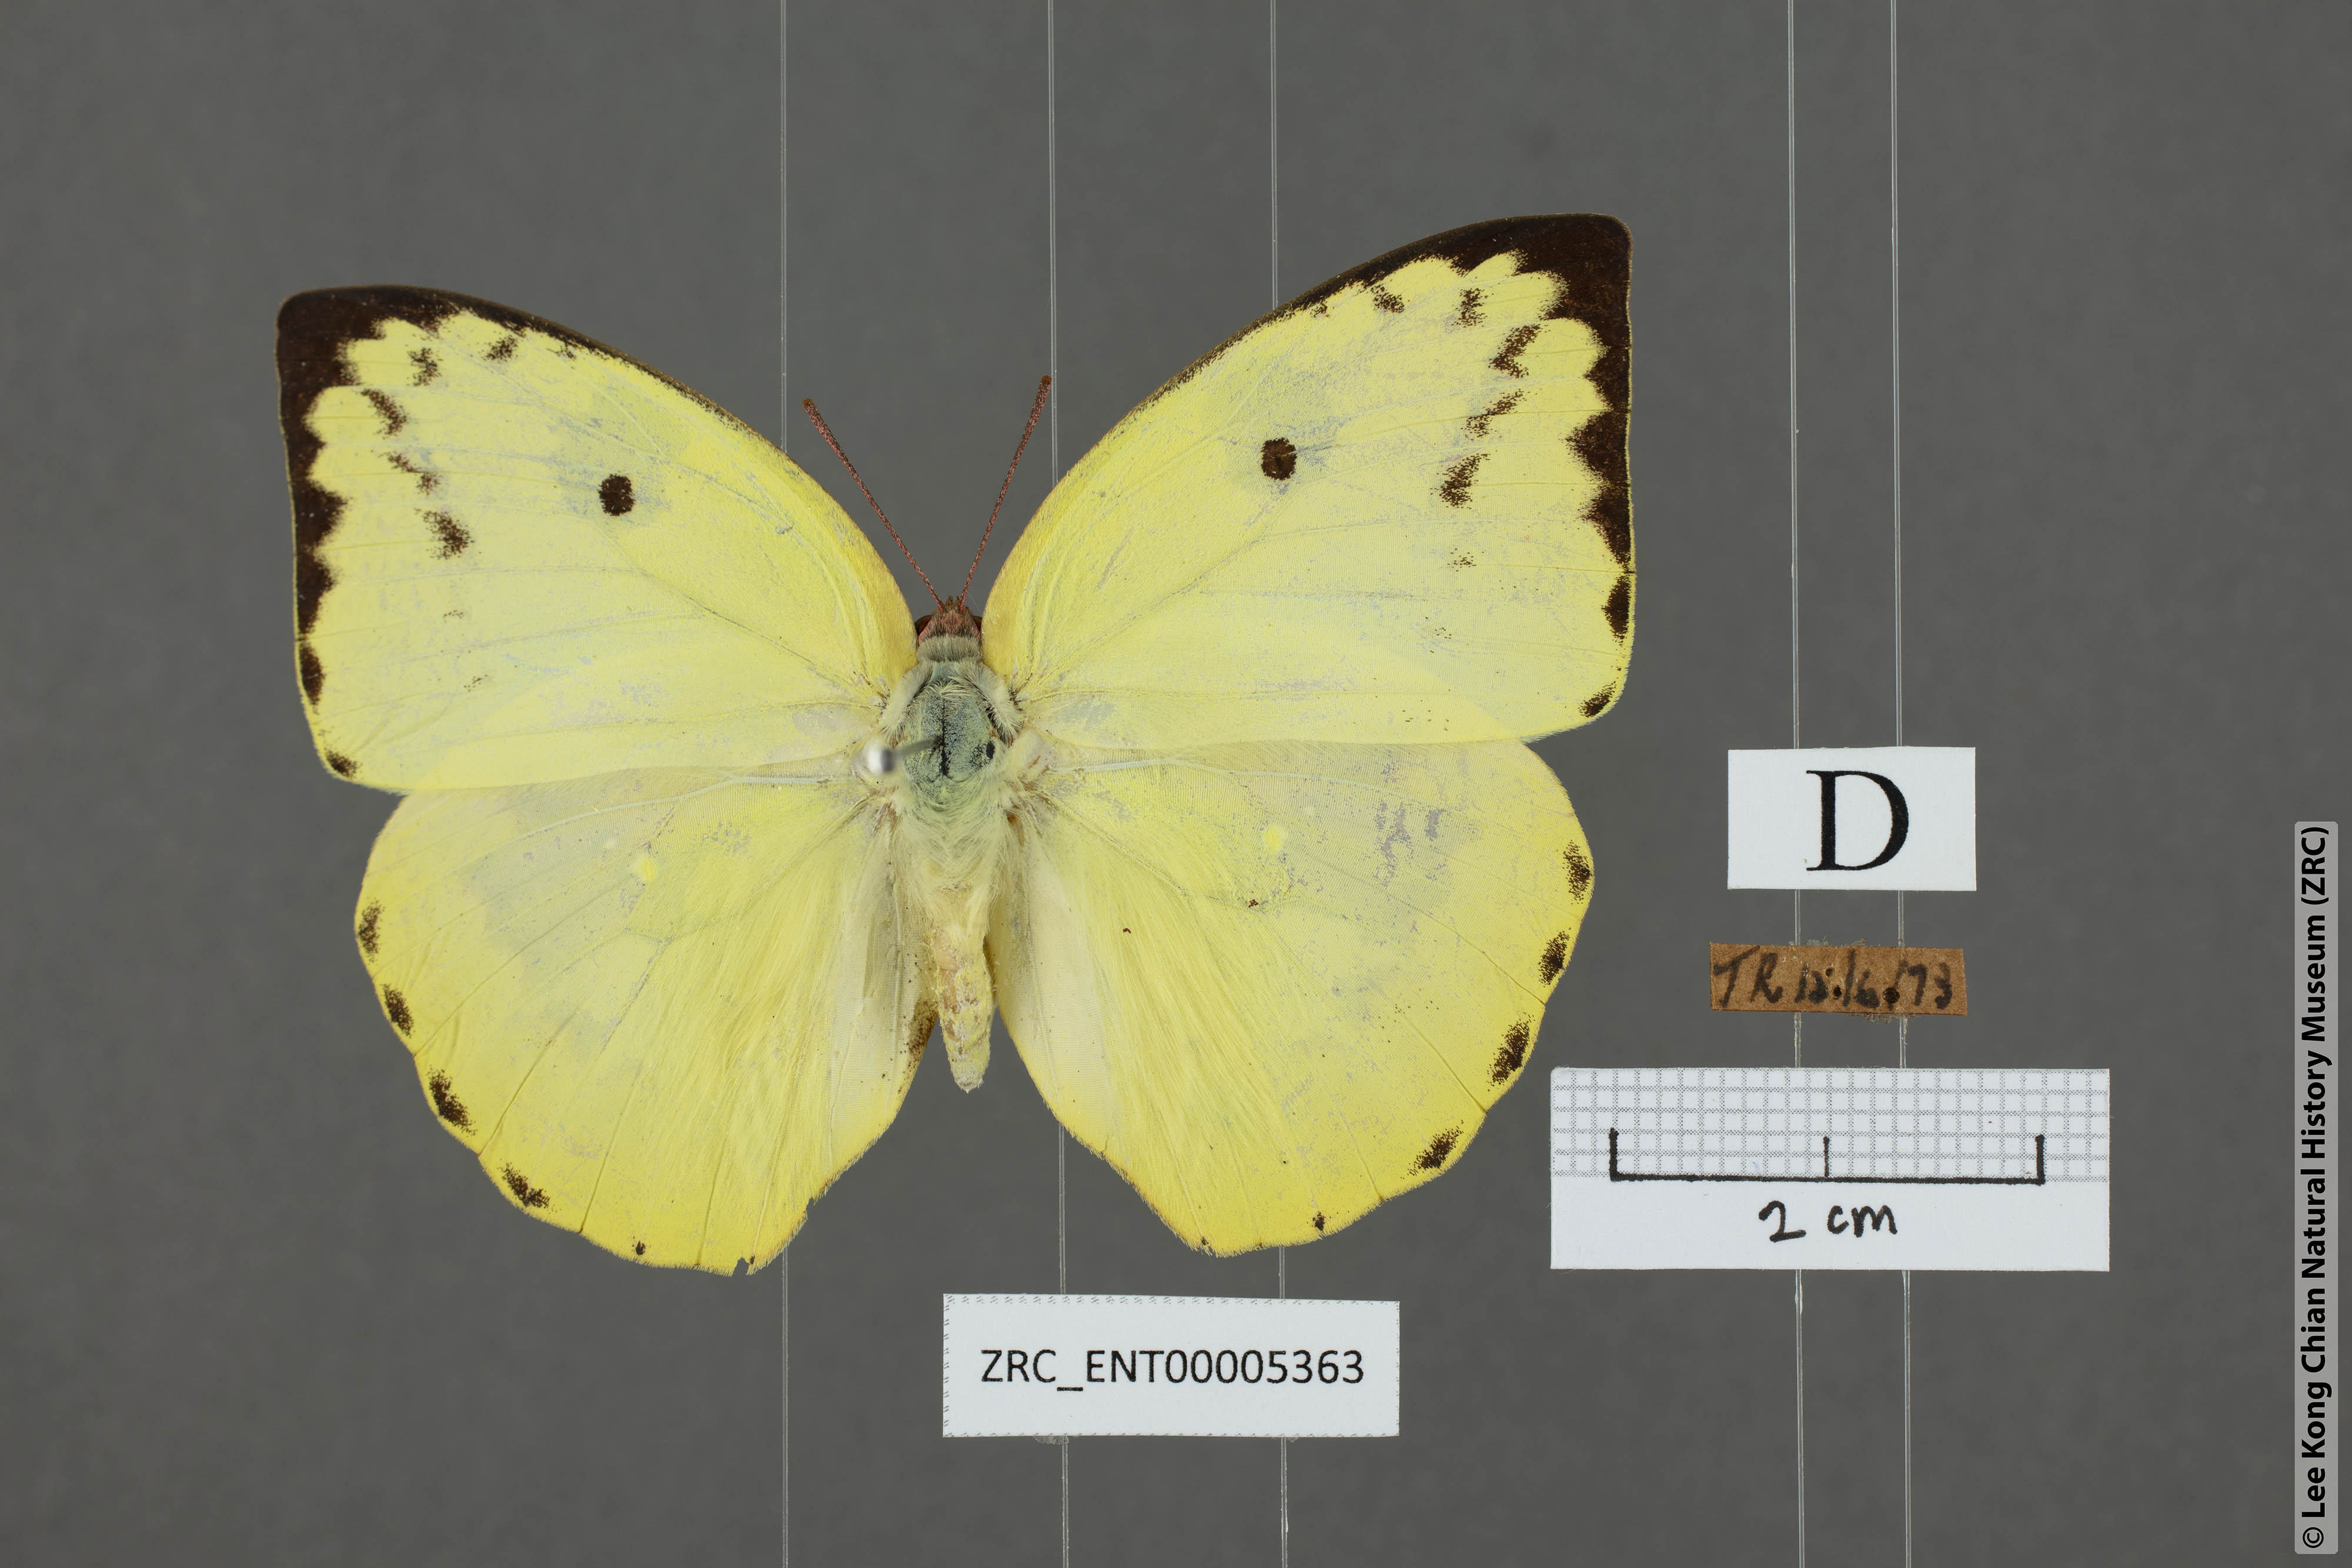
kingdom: Animalia
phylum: Arthropoda
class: Insecta
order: Lepidoptera
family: Pieridae
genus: Catopsilia
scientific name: Catopsilia pomona
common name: Common emigrant
